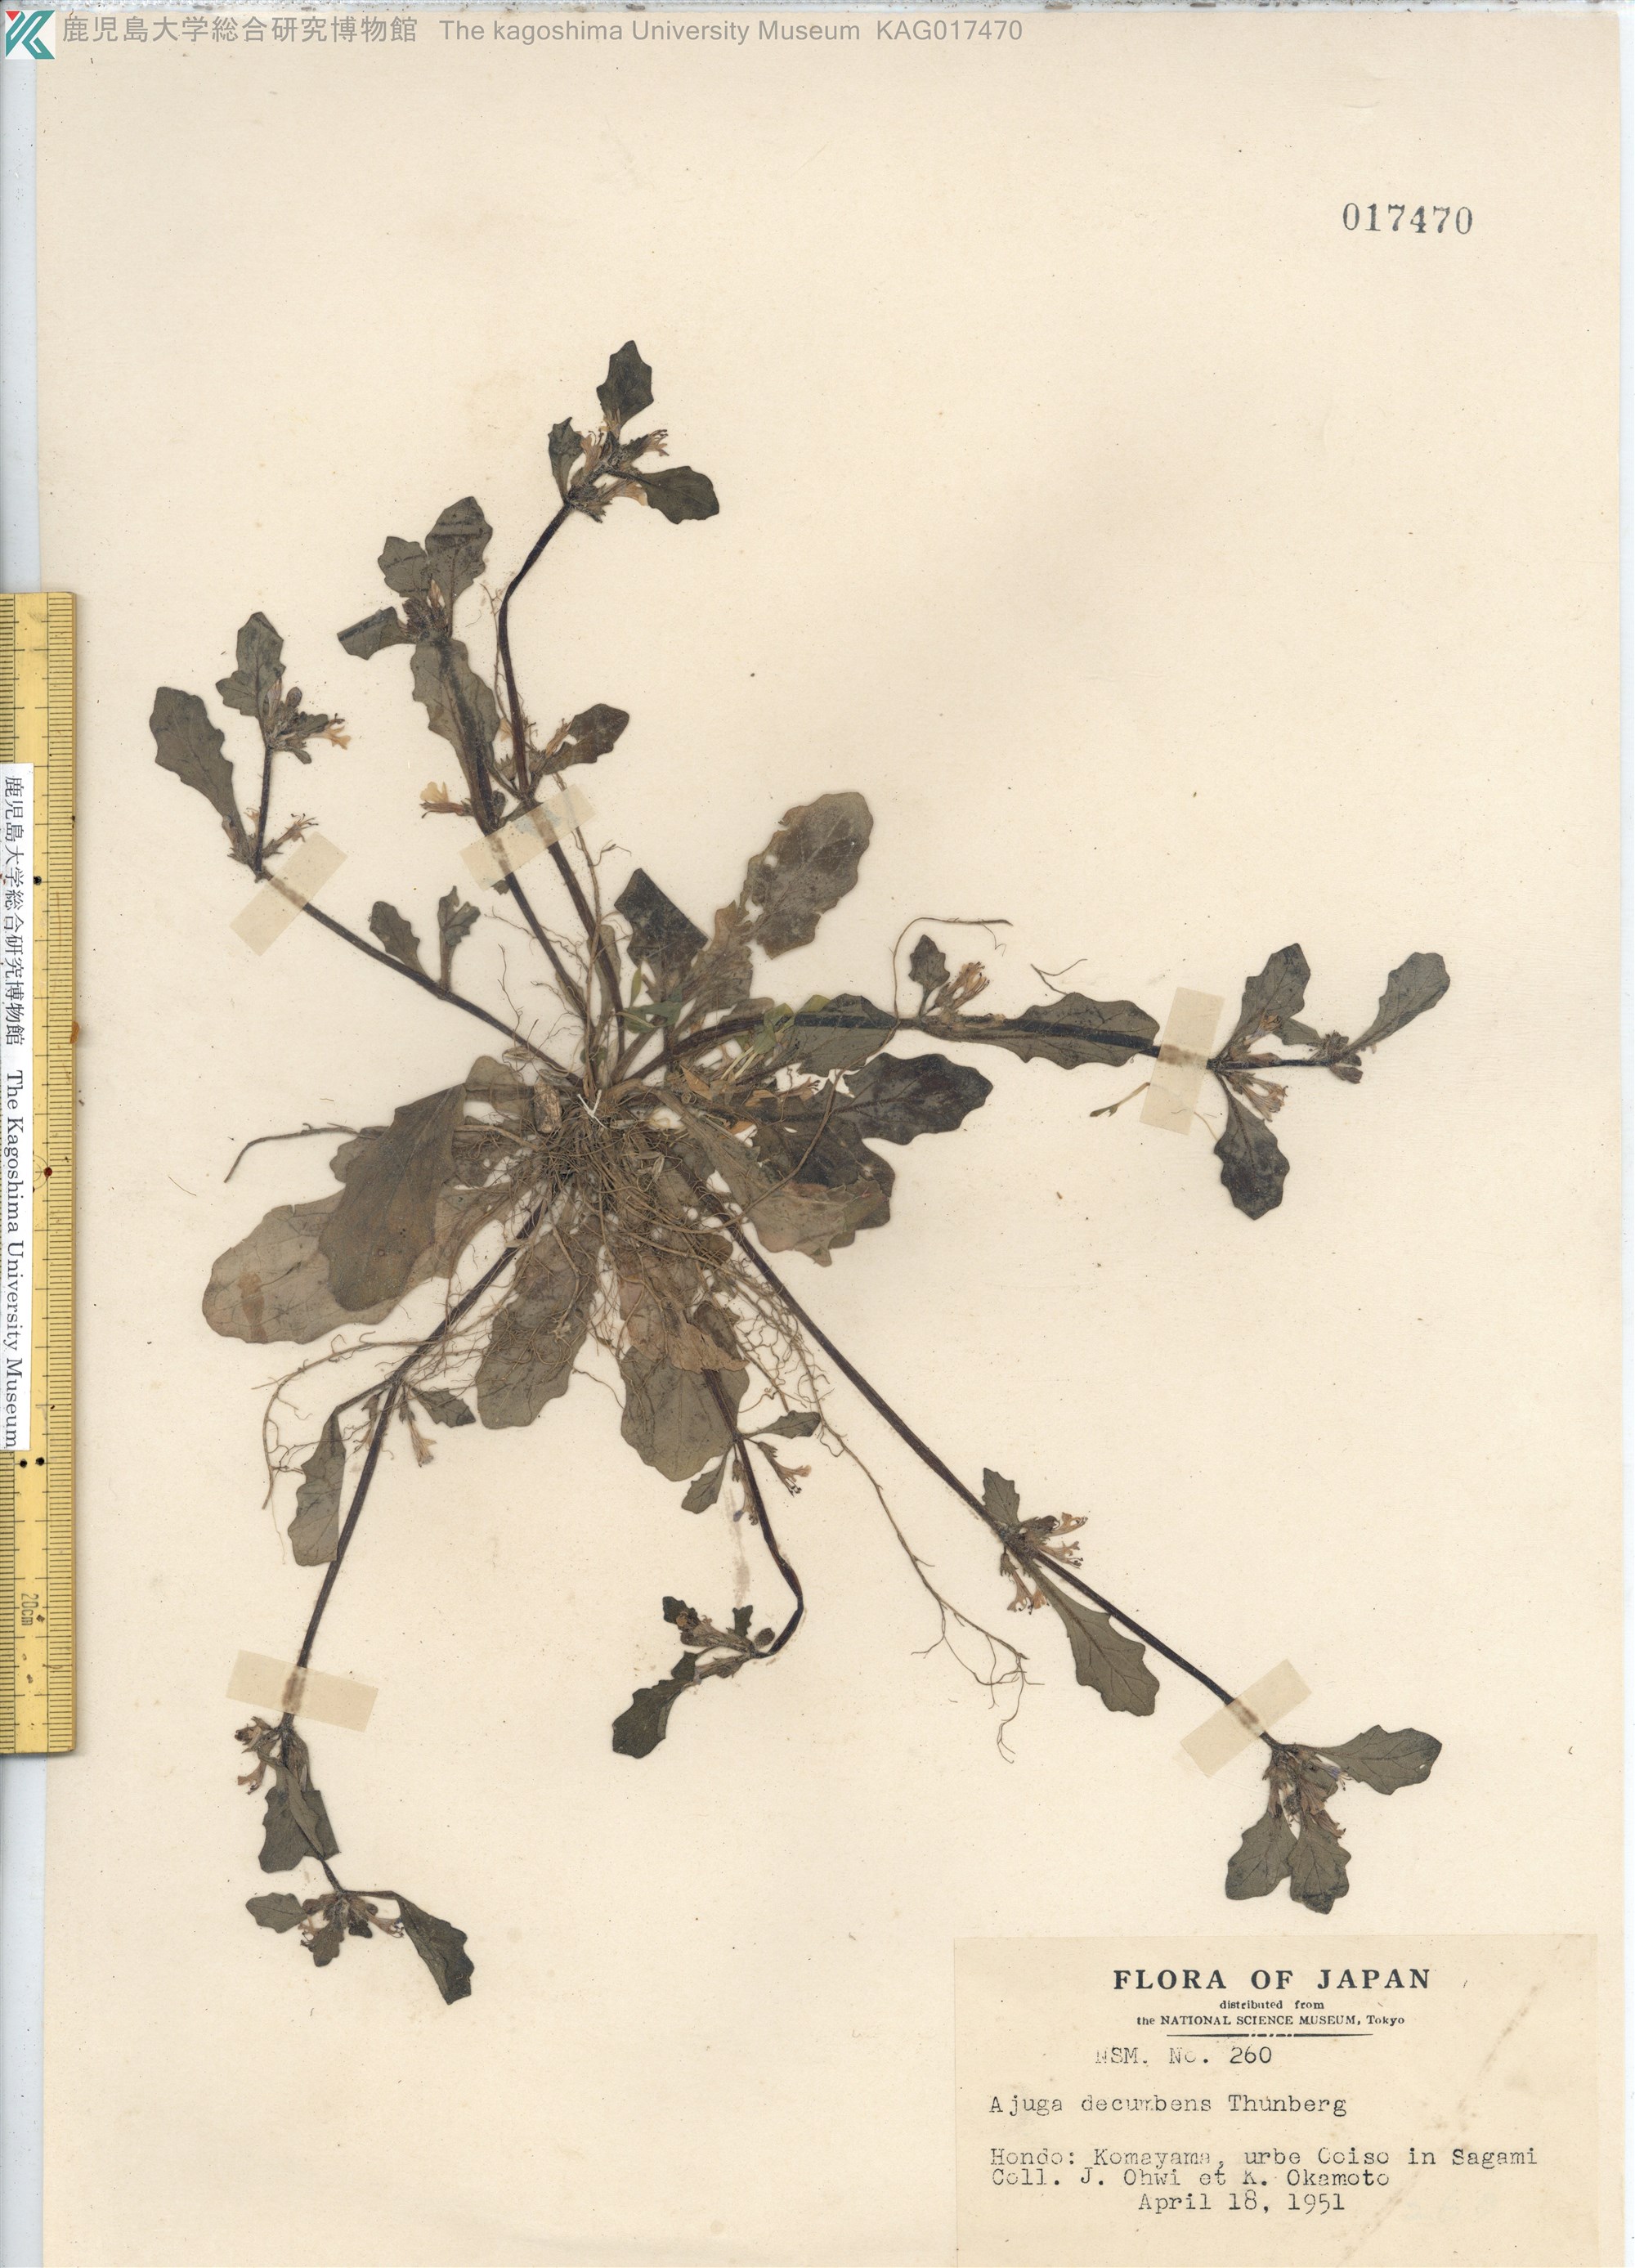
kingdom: Plantae
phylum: Tracheophyta
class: Magnoliopsida
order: Lamiales
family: Lamiaceae
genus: Ajuga
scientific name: Ajuga decumbens
